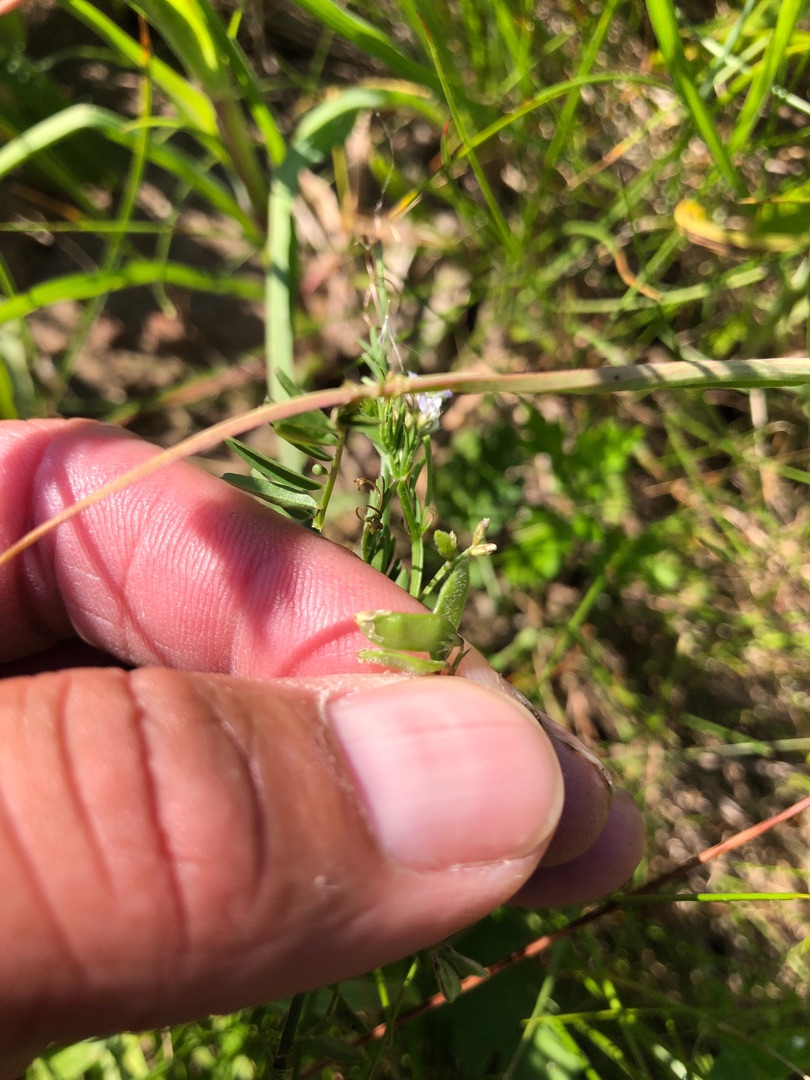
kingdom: Plantae
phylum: Tracheophyta
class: Magnoliopsida
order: Fabales
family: Fabaceae
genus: Vicia
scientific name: Vicia hirsuta
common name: Tofrøet vikke
